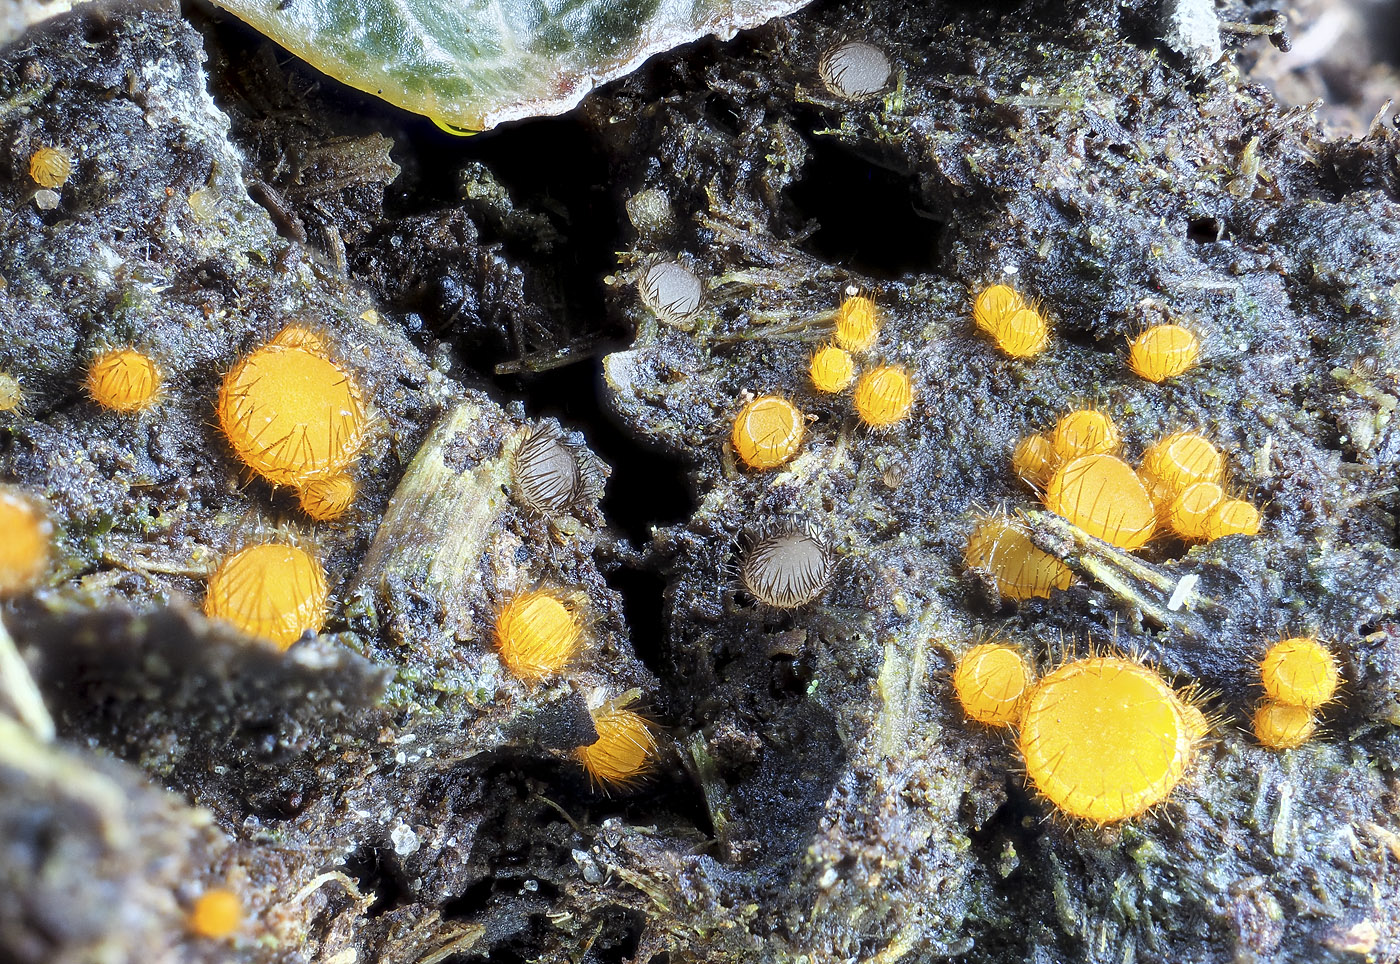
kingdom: Fungi
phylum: Ascomycota
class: Pezizomycetes
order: Pezizales
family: Pyronemataceae
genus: Trichophaeopsis
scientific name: Trichophaeopsis tetraspora
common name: møg-børstebæger
